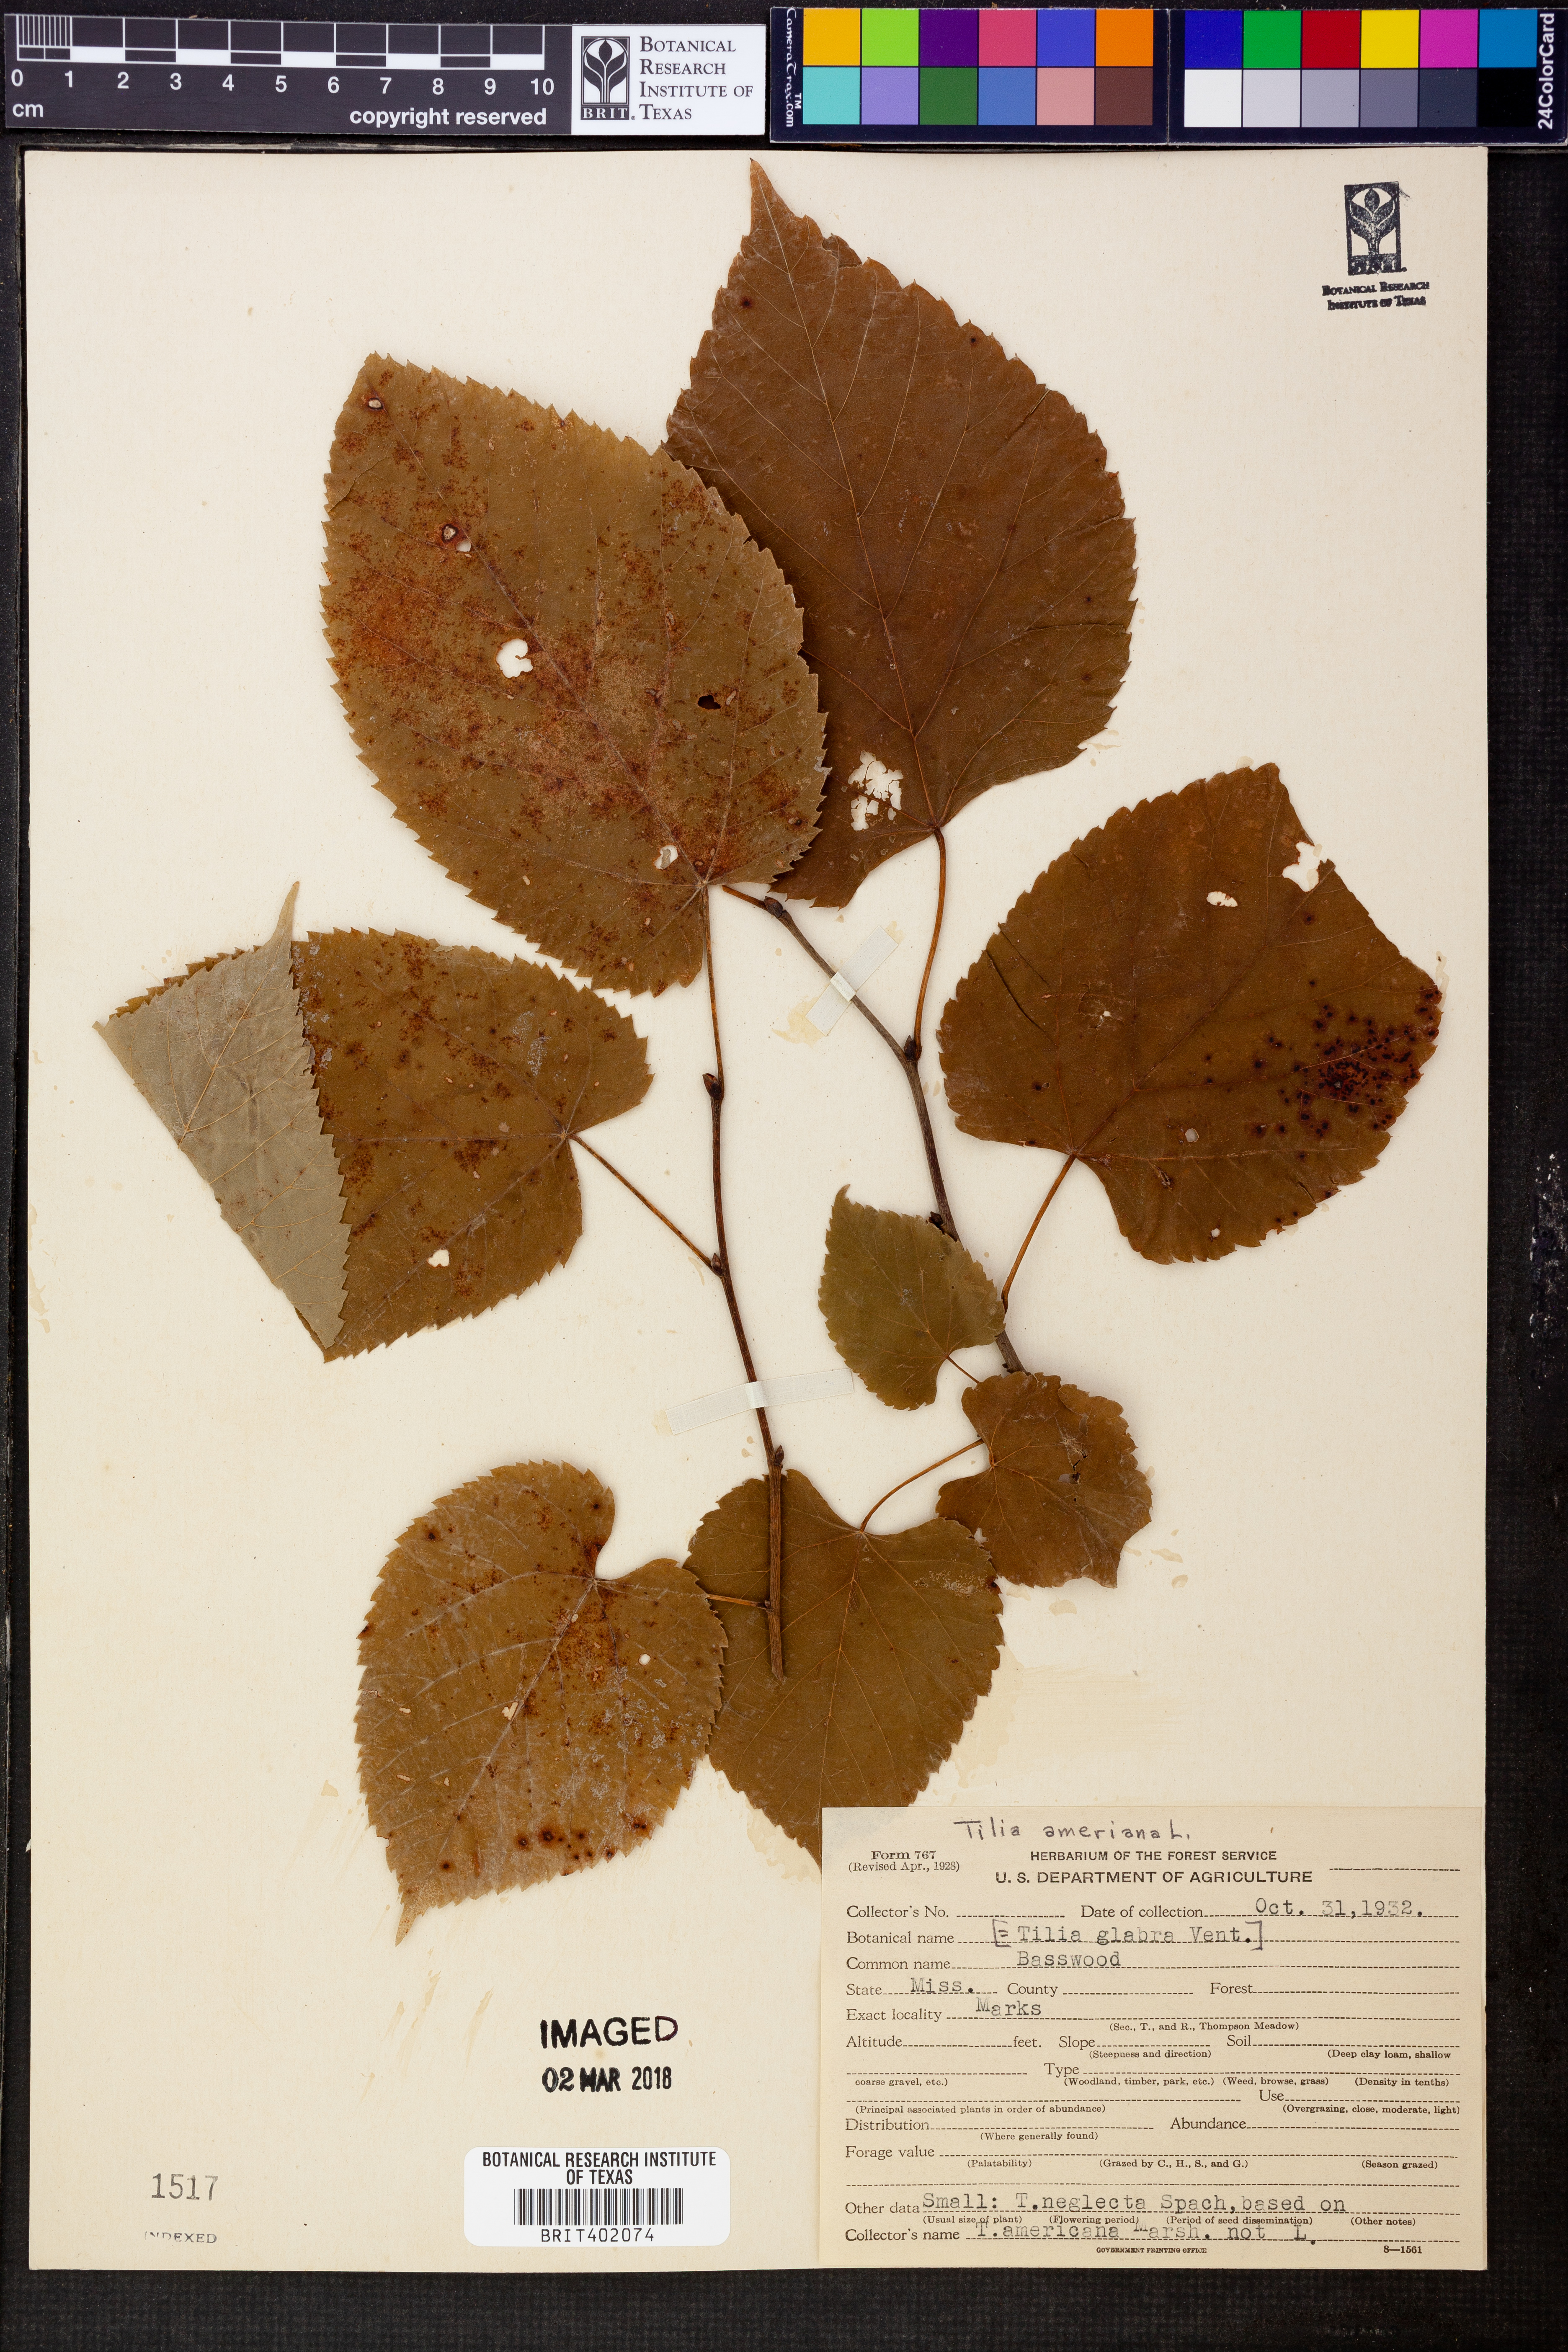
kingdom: Plantae
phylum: Tracheophyta
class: Magnoliopsida
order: Malvales
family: Malvaceae
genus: Tilia
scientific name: Tilia americana
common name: Basswood
